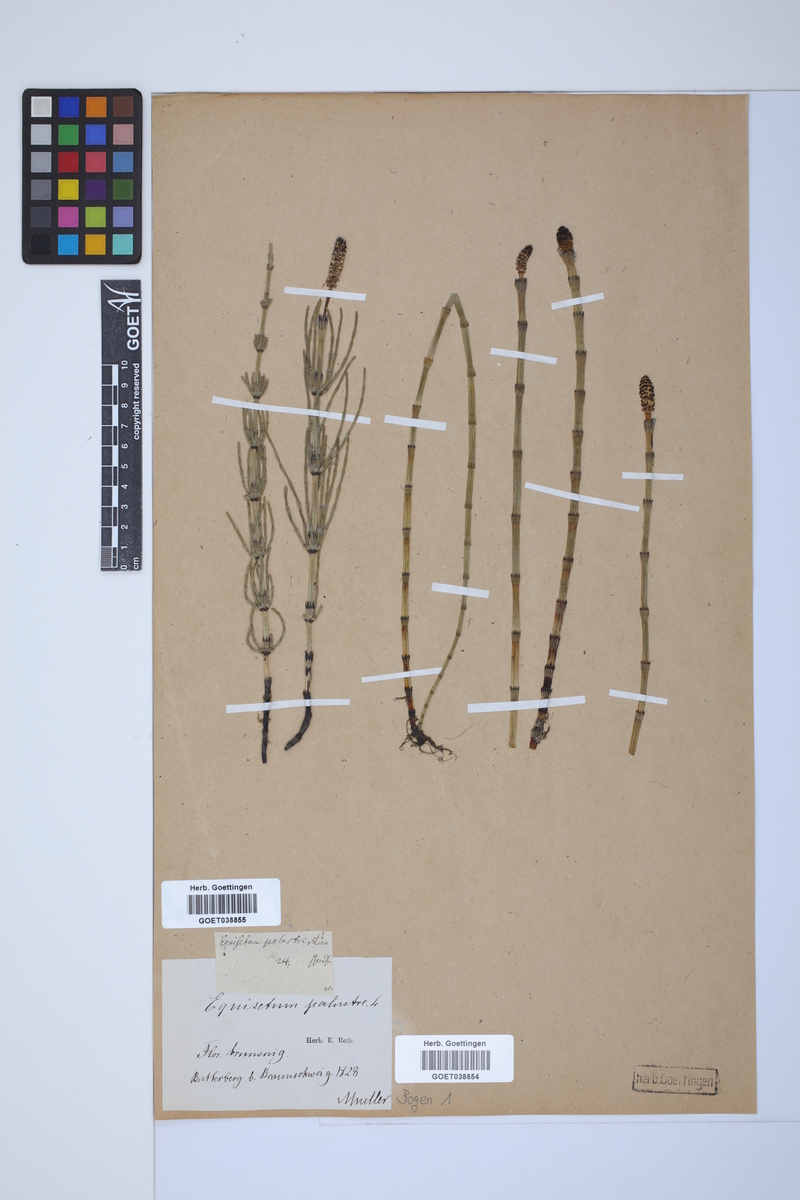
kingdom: Plantae
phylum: Tracheophyta
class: Polypodiopsida
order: Equisetales
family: Equisetaceae
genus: Equisetum
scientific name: Equisetum palustre
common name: Marsh horsetail
